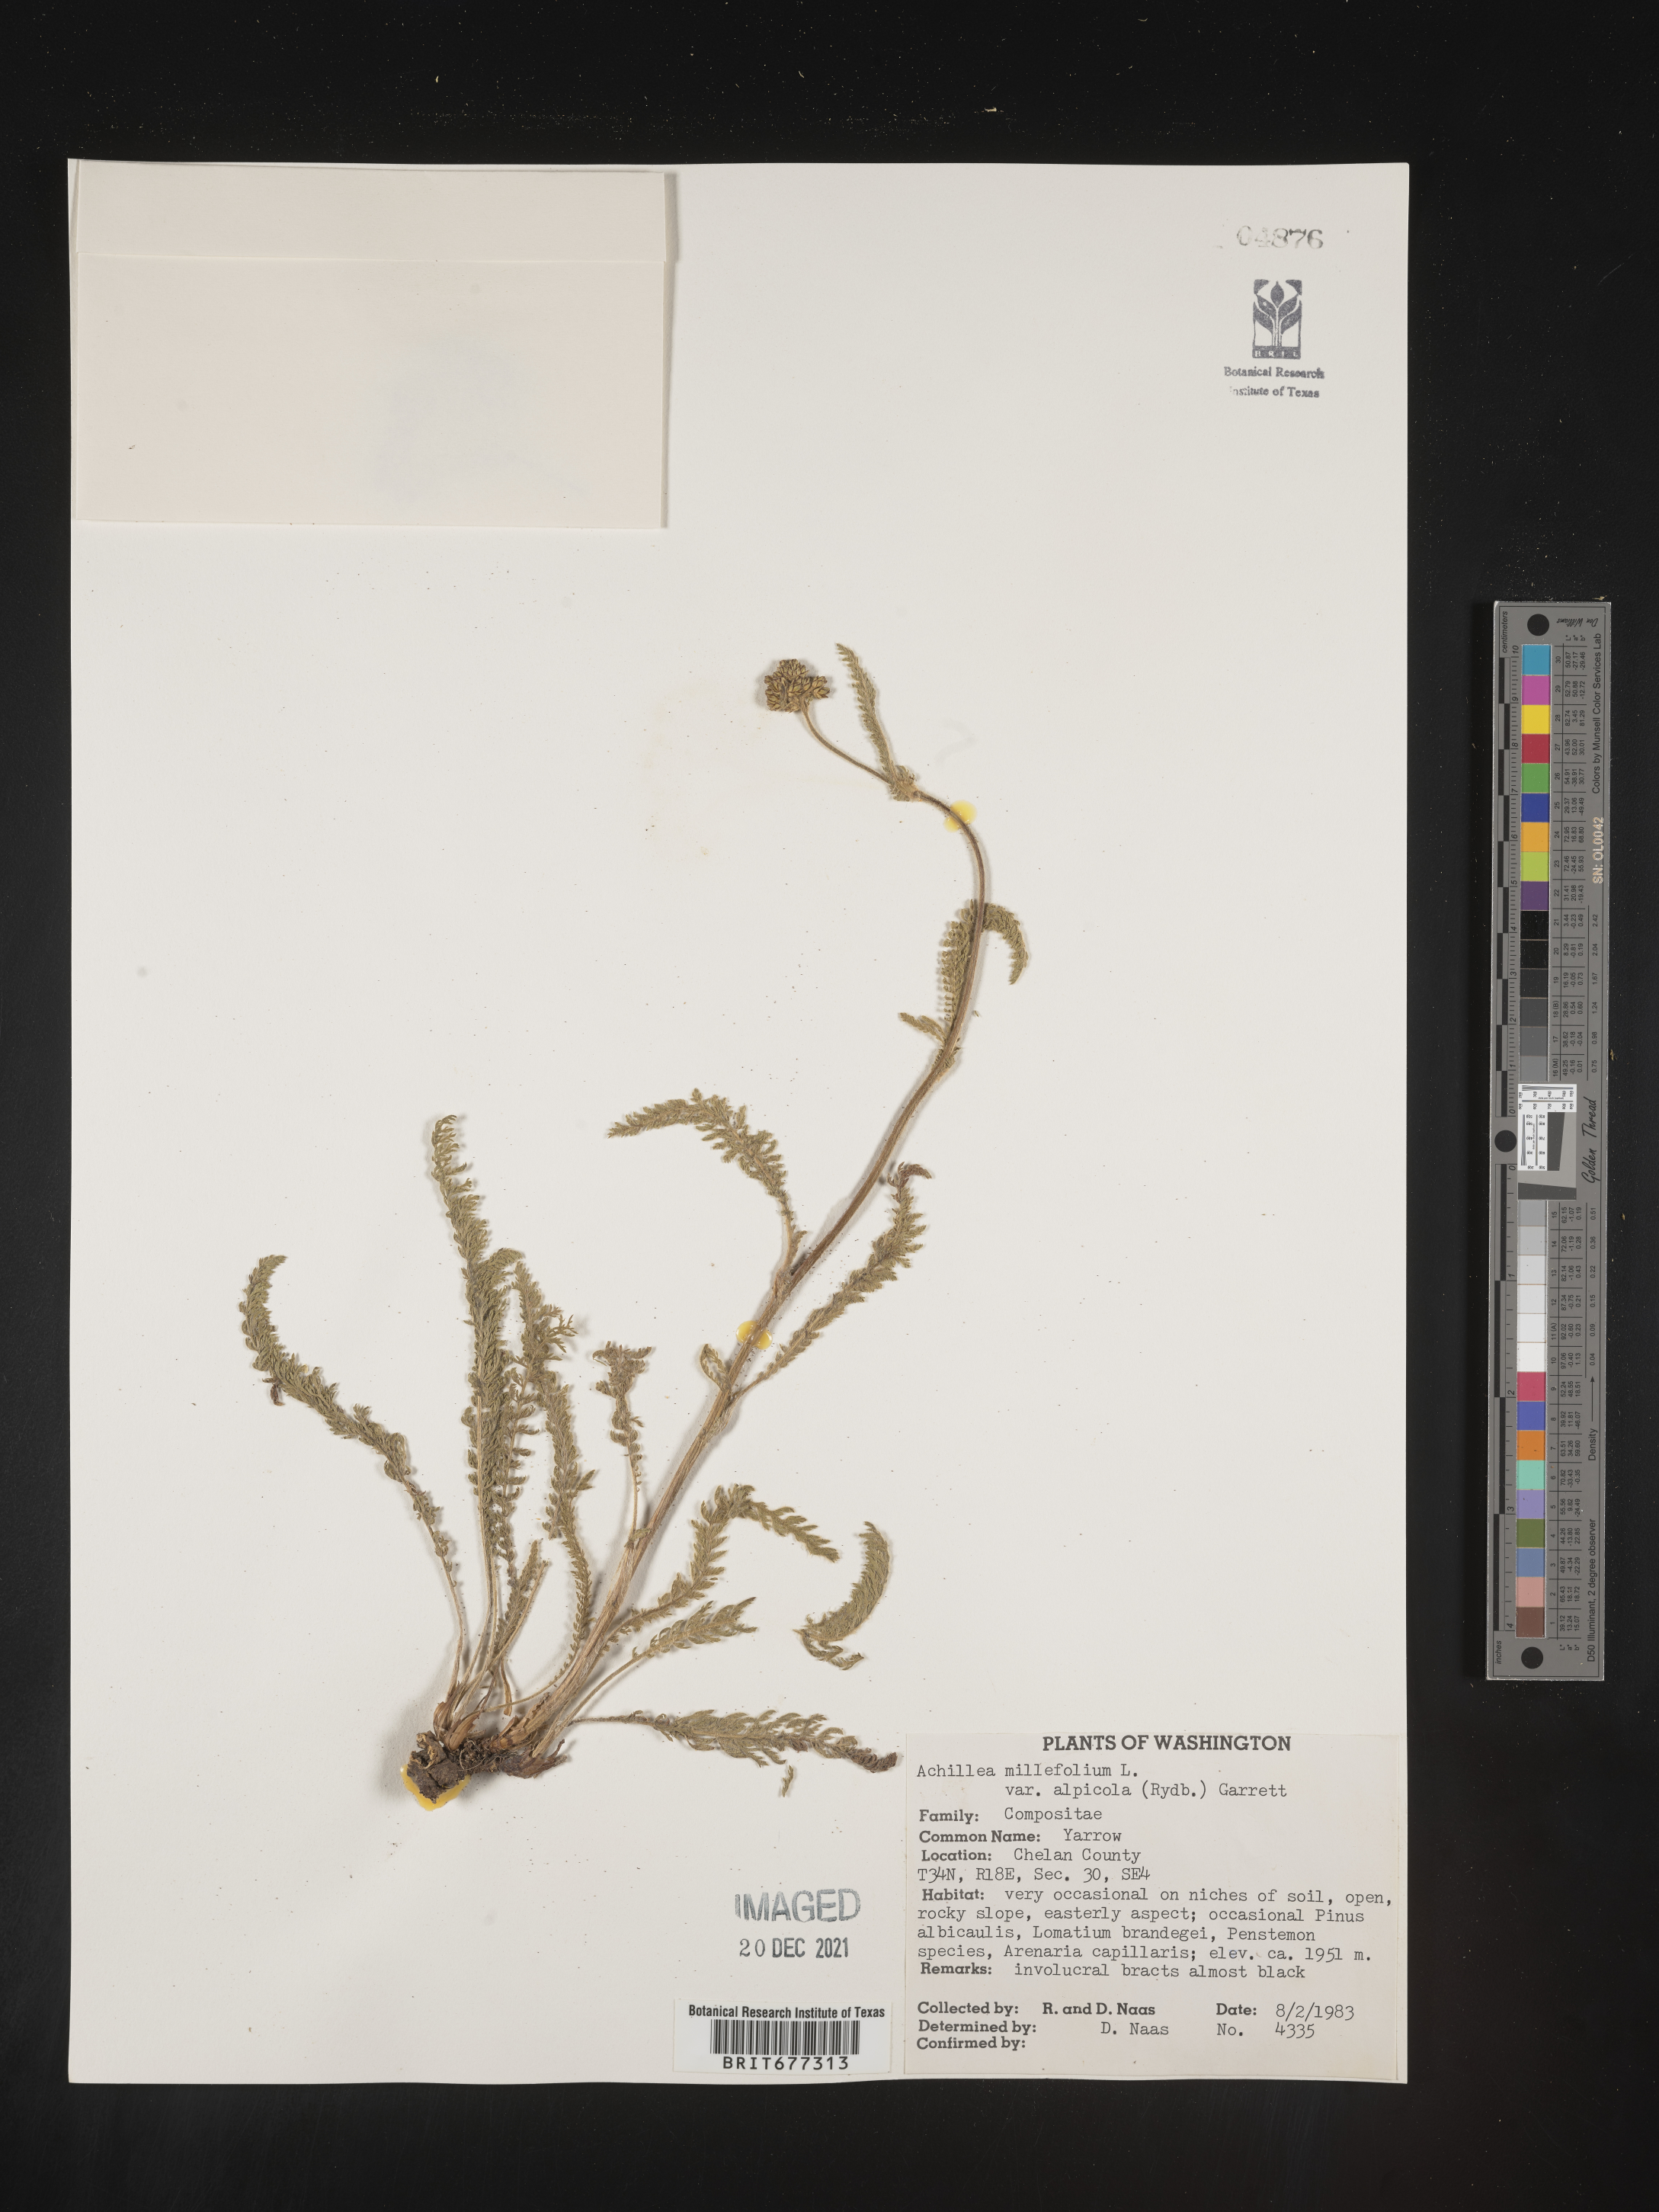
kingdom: Plantae
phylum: Tracheophyta
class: Magnoliopsida
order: Asterales
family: Asteraceae
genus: Achillea
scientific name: Achillea millefolium
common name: Yarrow
